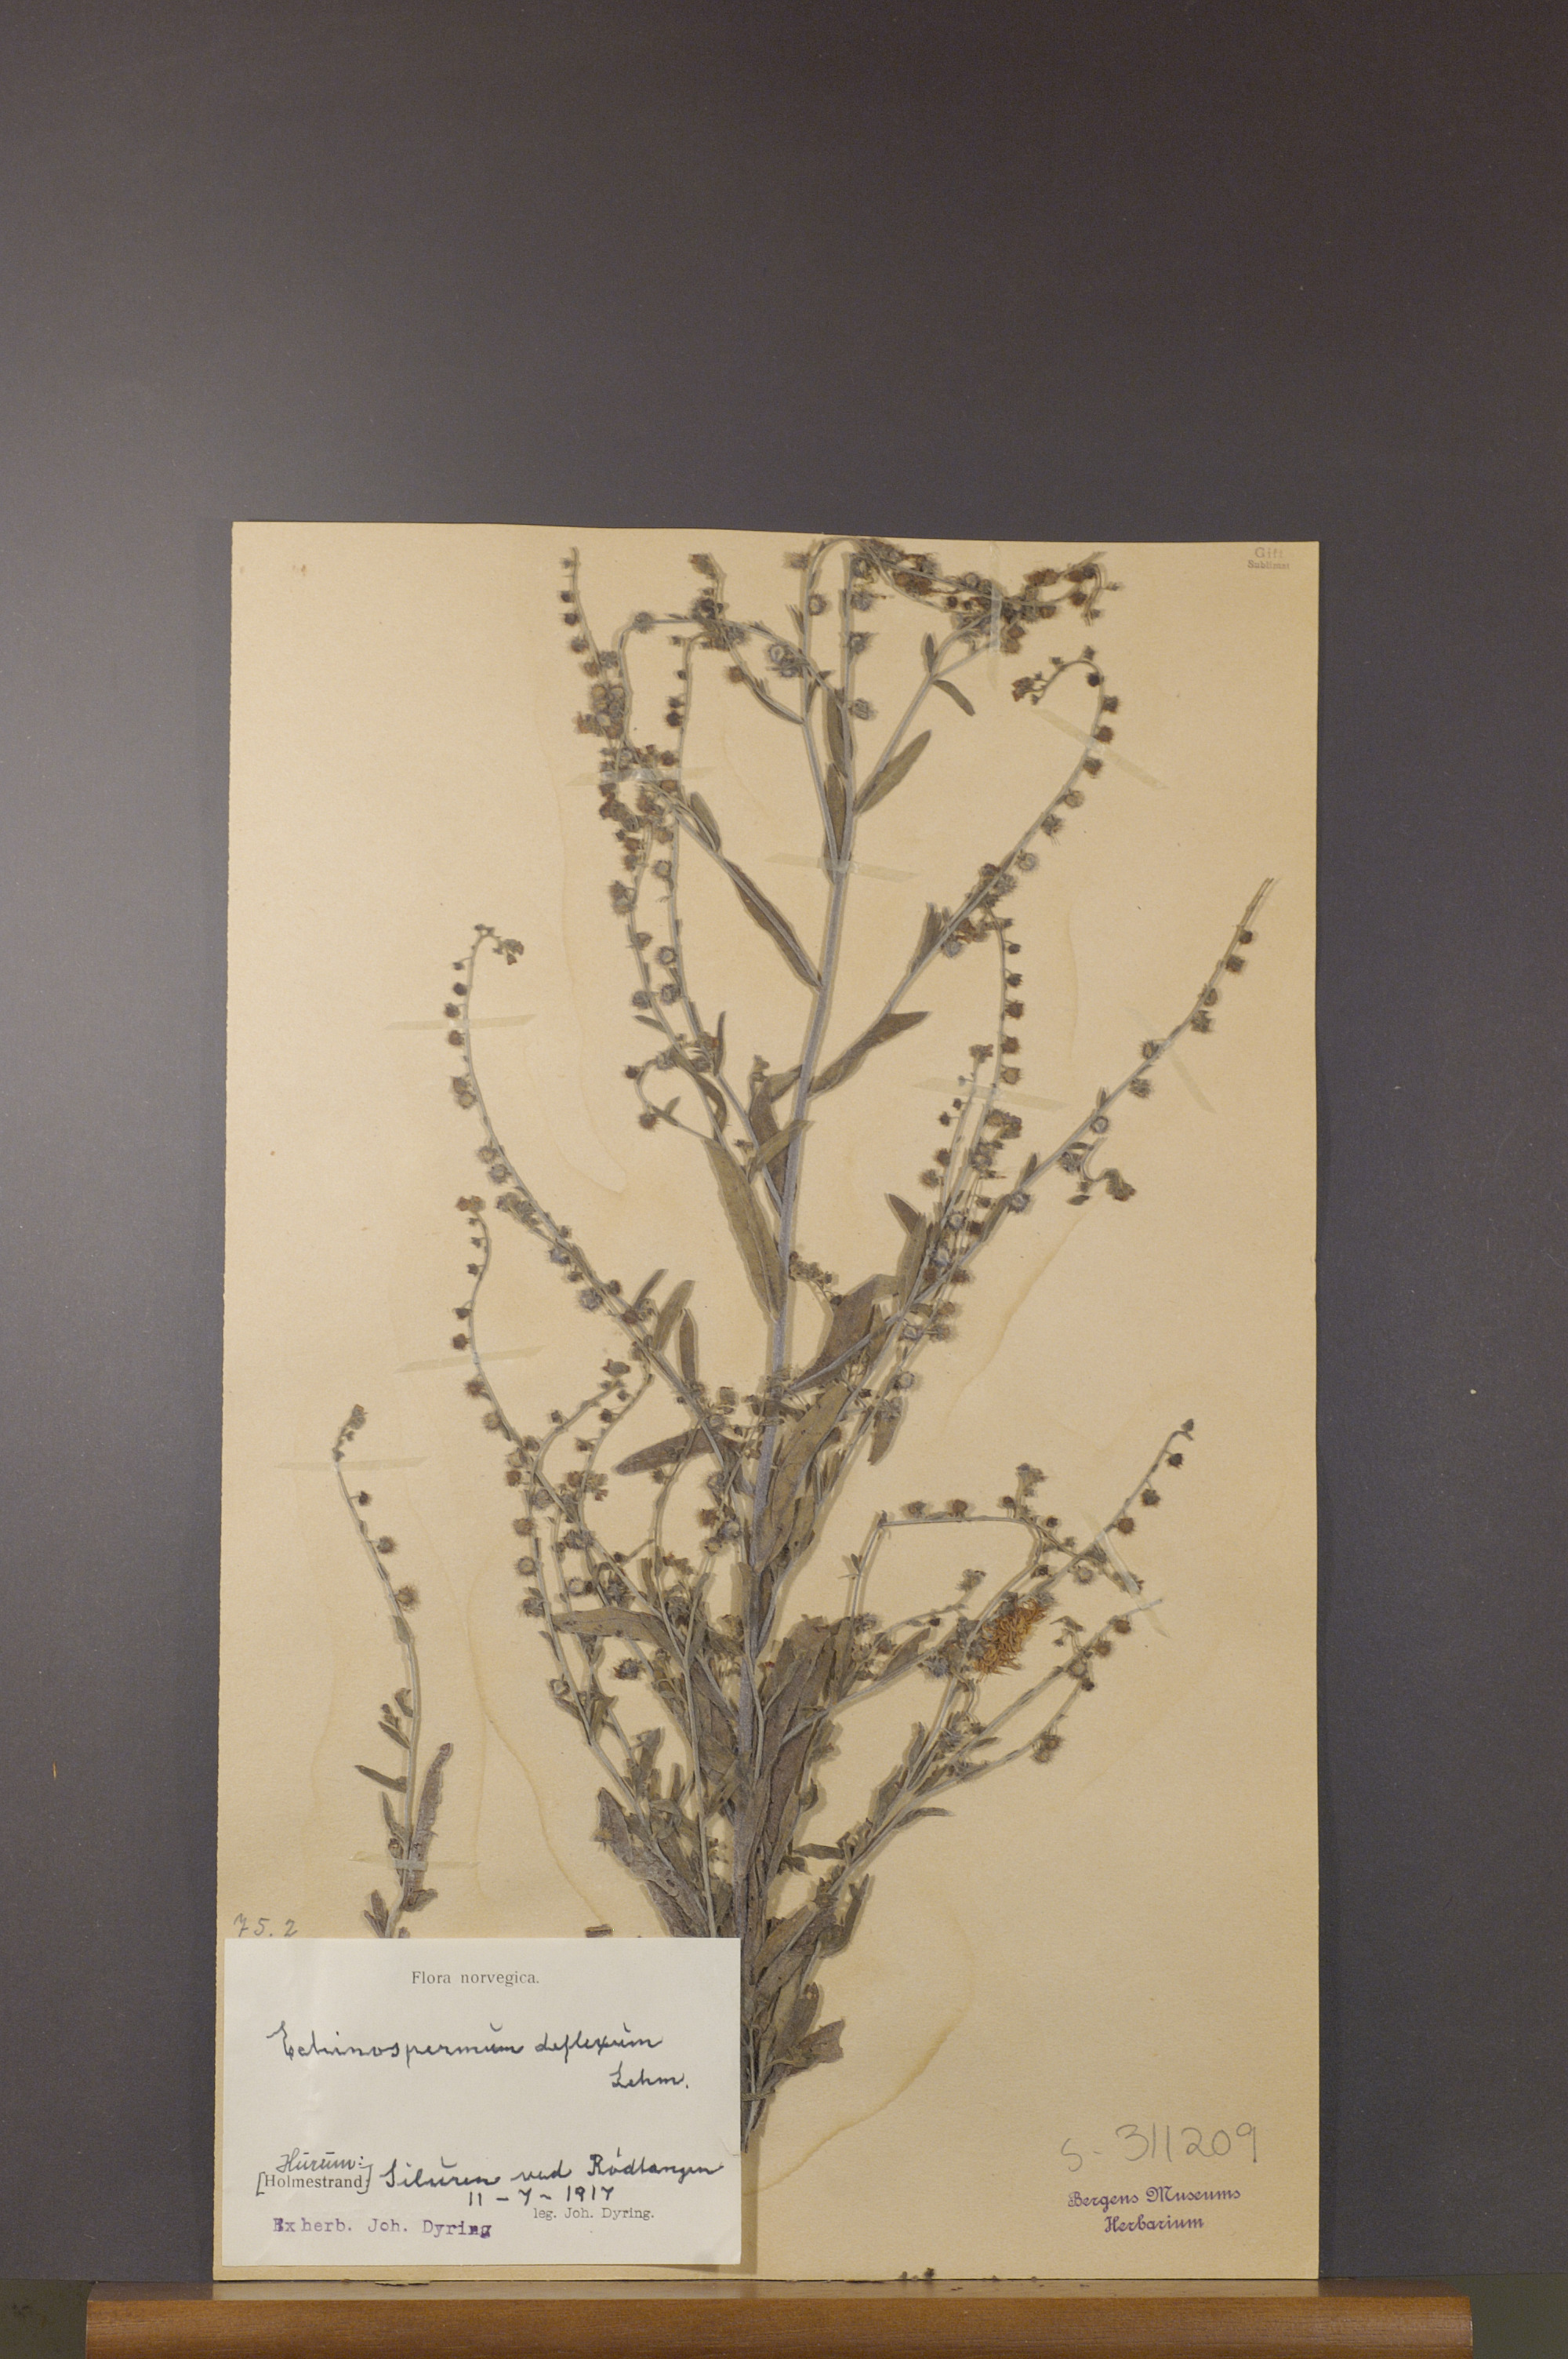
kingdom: Plantae
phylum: Tracheophyta
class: Magnoliopsida
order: Boraginales
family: Boraginaceae
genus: Hackelia
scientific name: Hackelia deflexa
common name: Nodding stickseed
